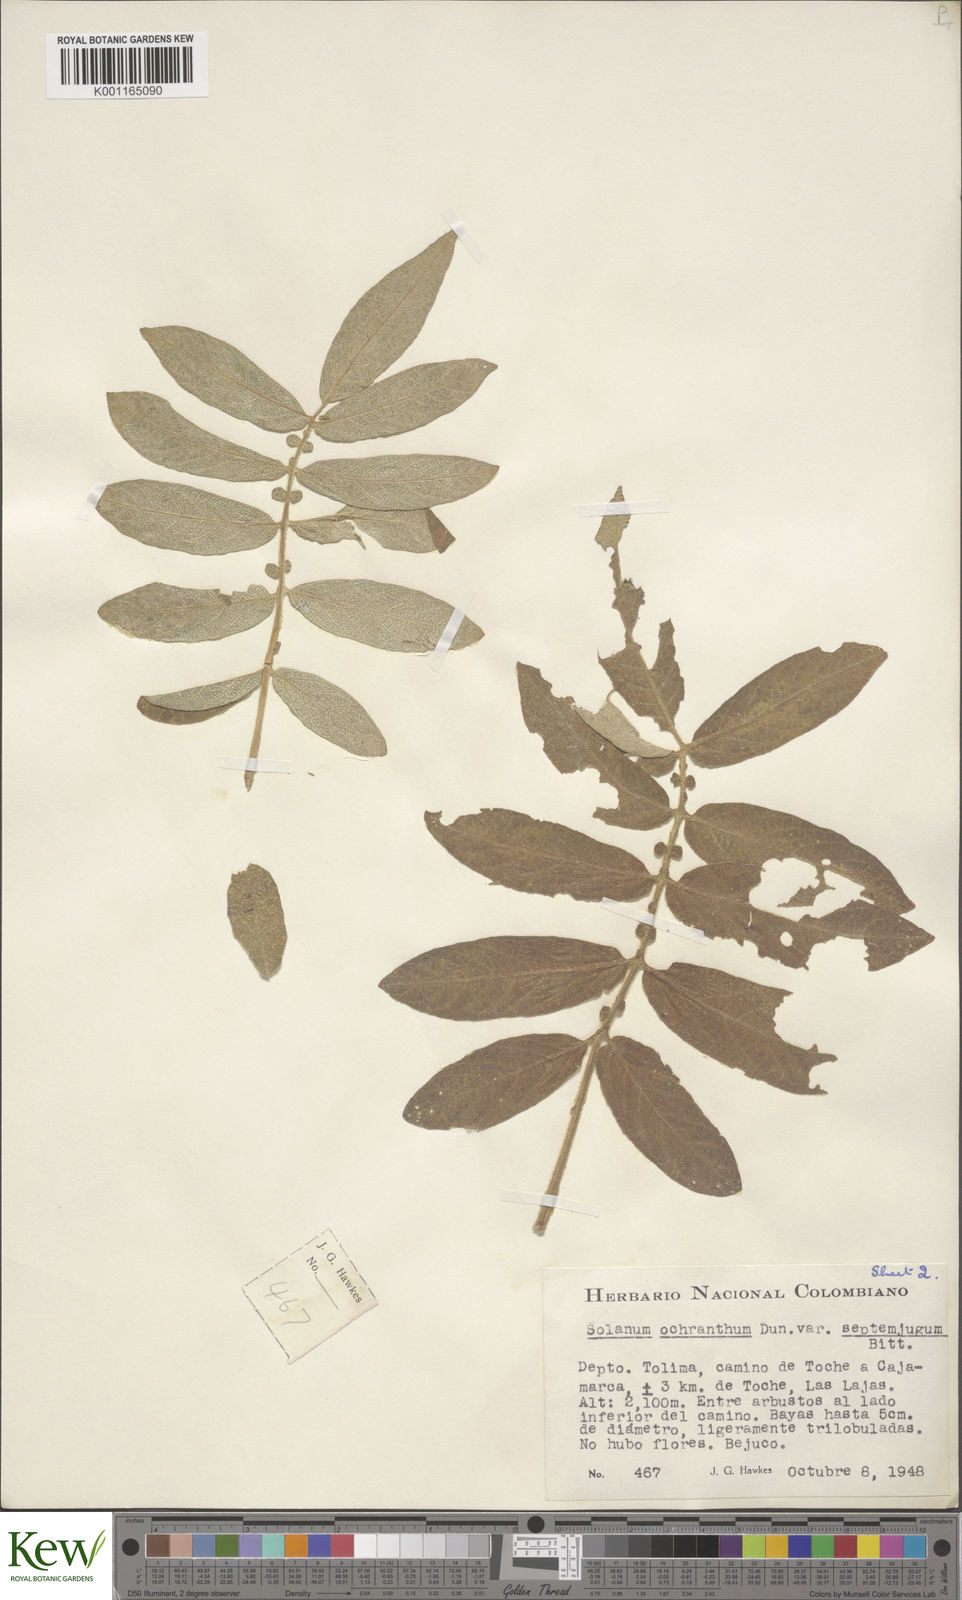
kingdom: Plantae
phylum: Tracheophyta
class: Magnoliopsida
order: Solanales
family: Solanaceae
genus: Solanum
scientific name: Solanum ochranthum
